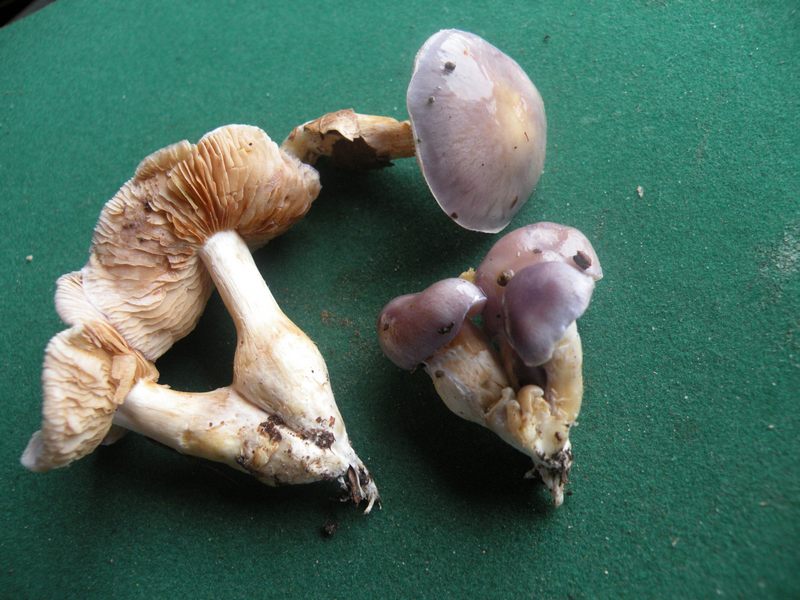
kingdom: Fungi
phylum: Basidiomycota
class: Agaricomycetes
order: Agaricales
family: Cortinariaceae
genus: Thaxterogaster
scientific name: Thaxterogaster croceocoeruleus
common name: blågullig slørhat
